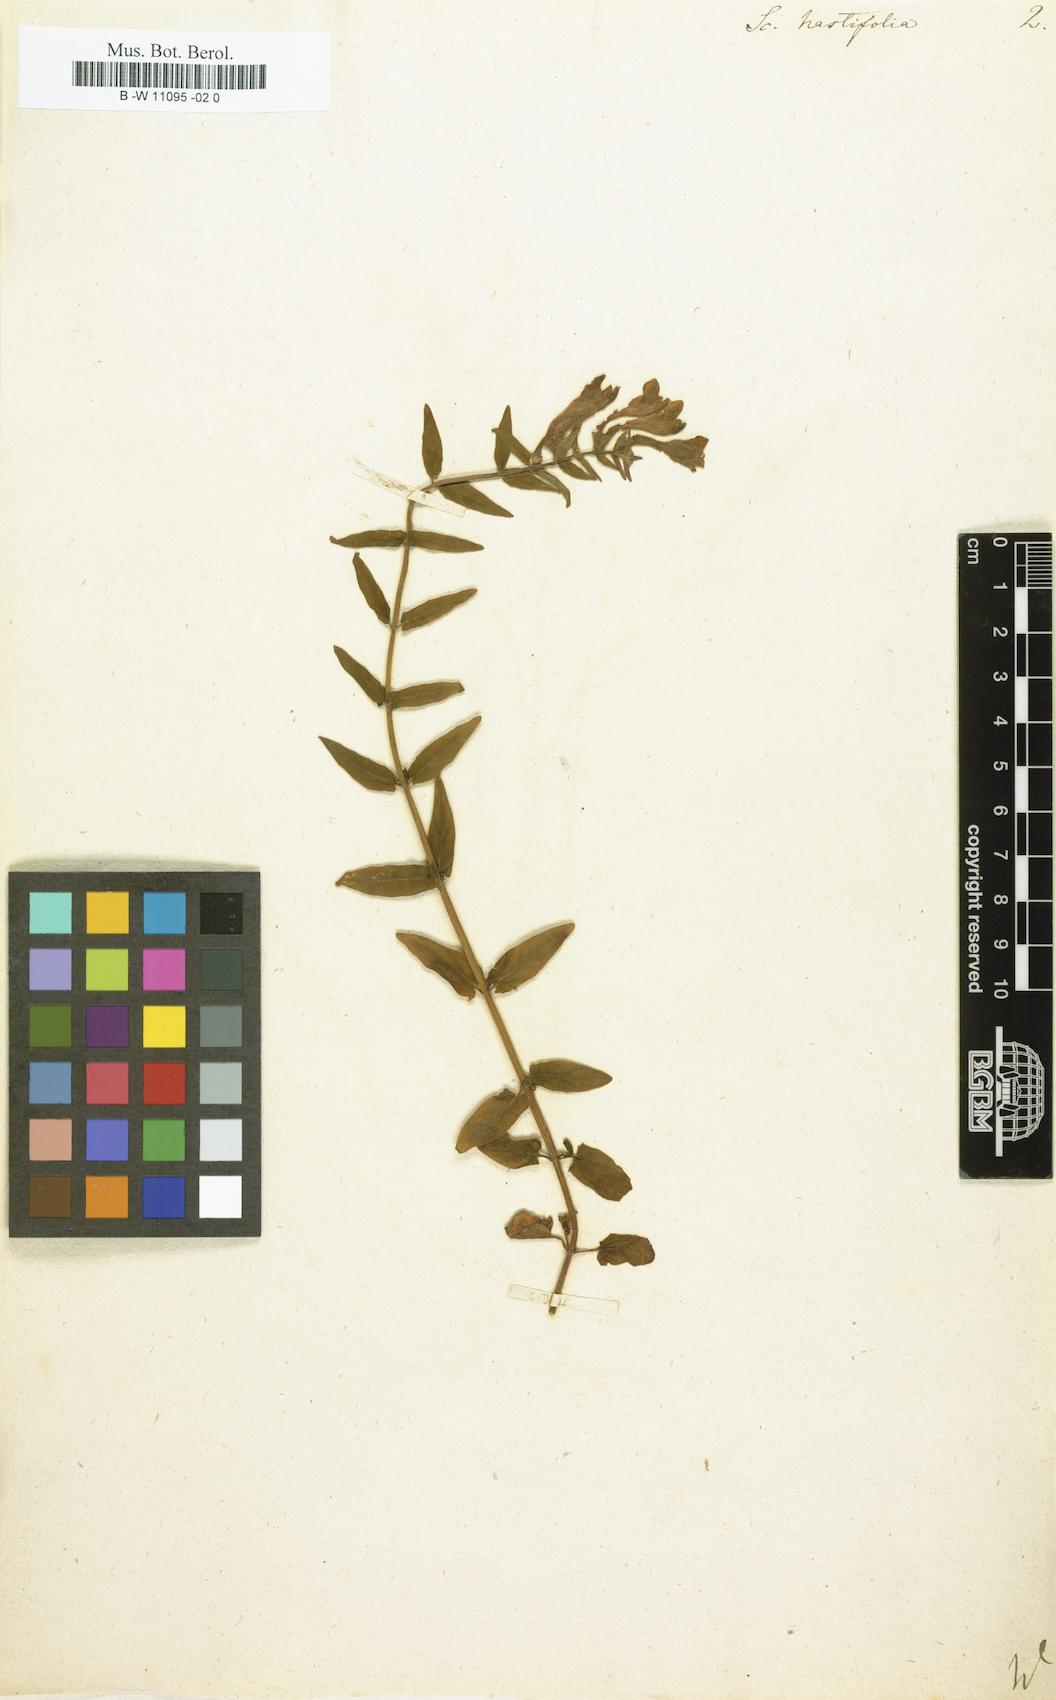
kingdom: Plantae
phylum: Tracheophyta
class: Magnoliopsida
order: Lamiales
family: Lamiaceae
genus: Scutellaria
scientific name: Scutellaria hastifolia
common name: Norfolk skullcap
